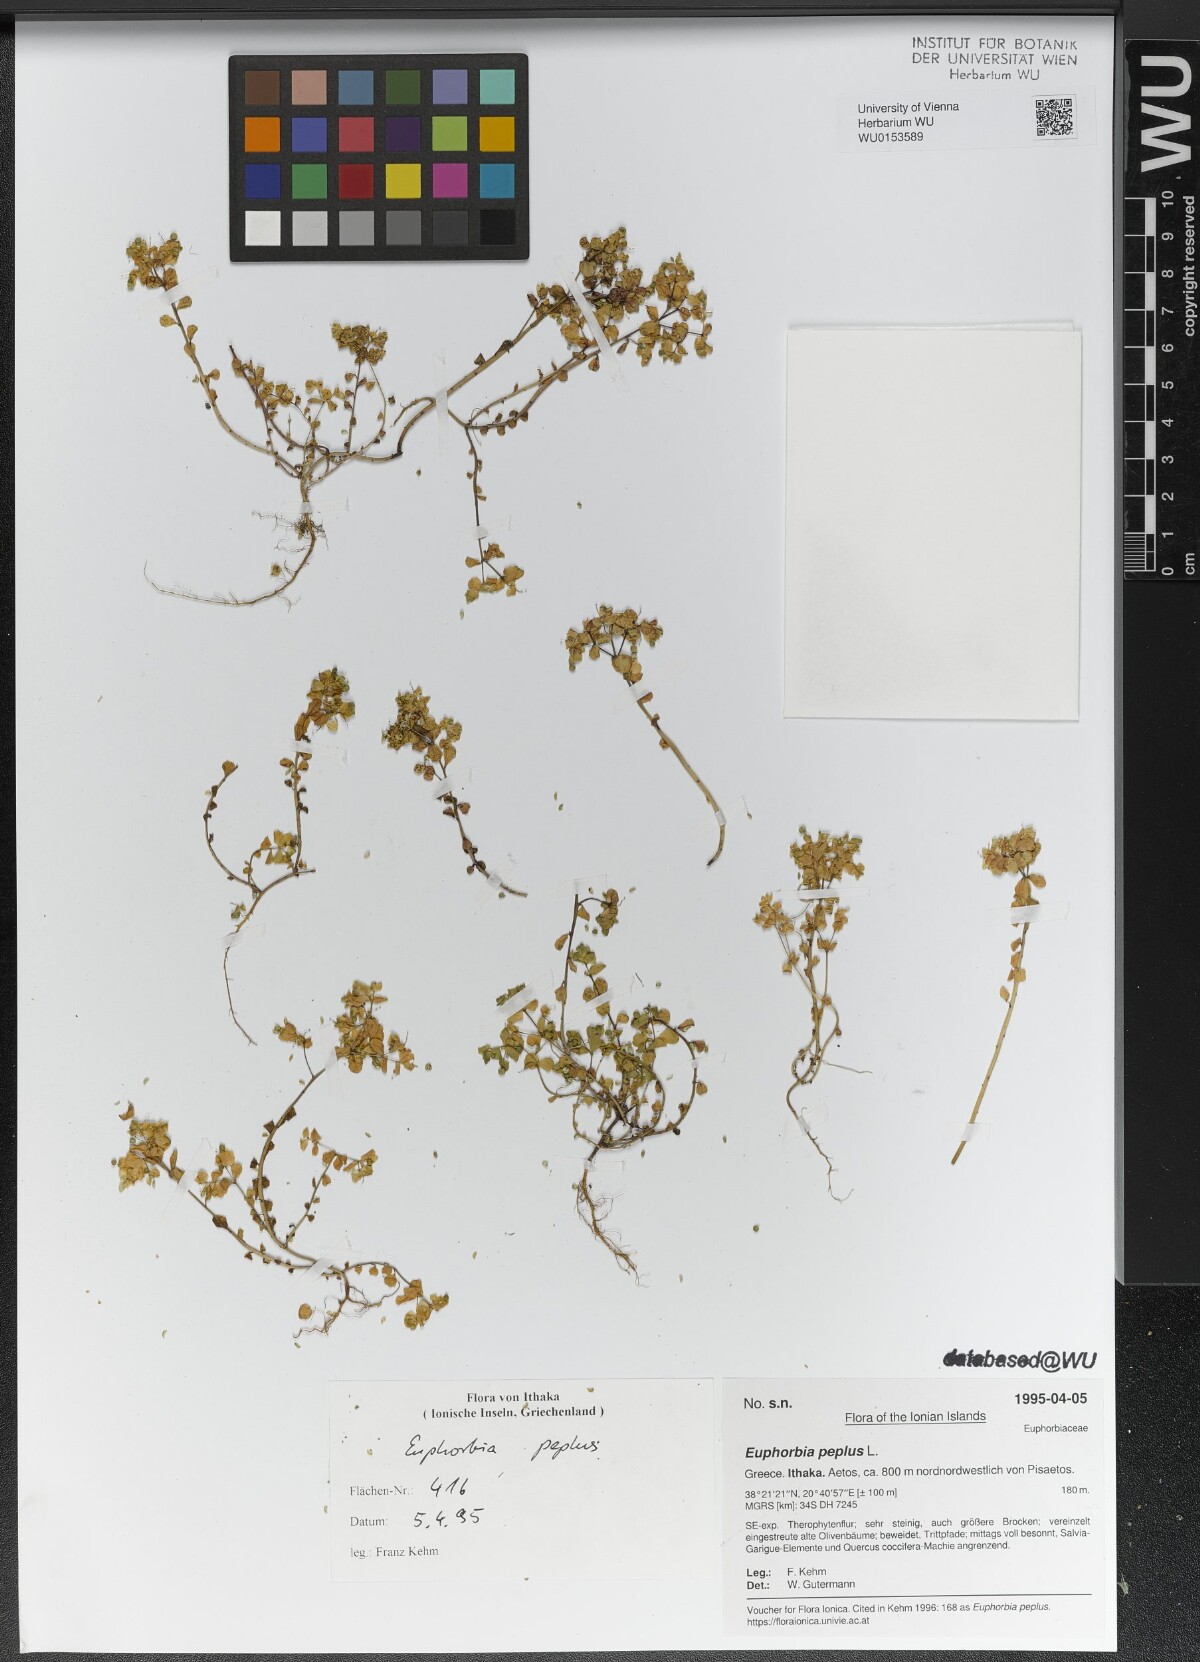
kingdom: Plantae
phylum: Tracheophyta
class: Magnoliopsida
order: Malpighiales
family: Euphorbiaceae
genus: Euphorbia
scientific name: Euphorbia peplus
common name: Petty spurge
